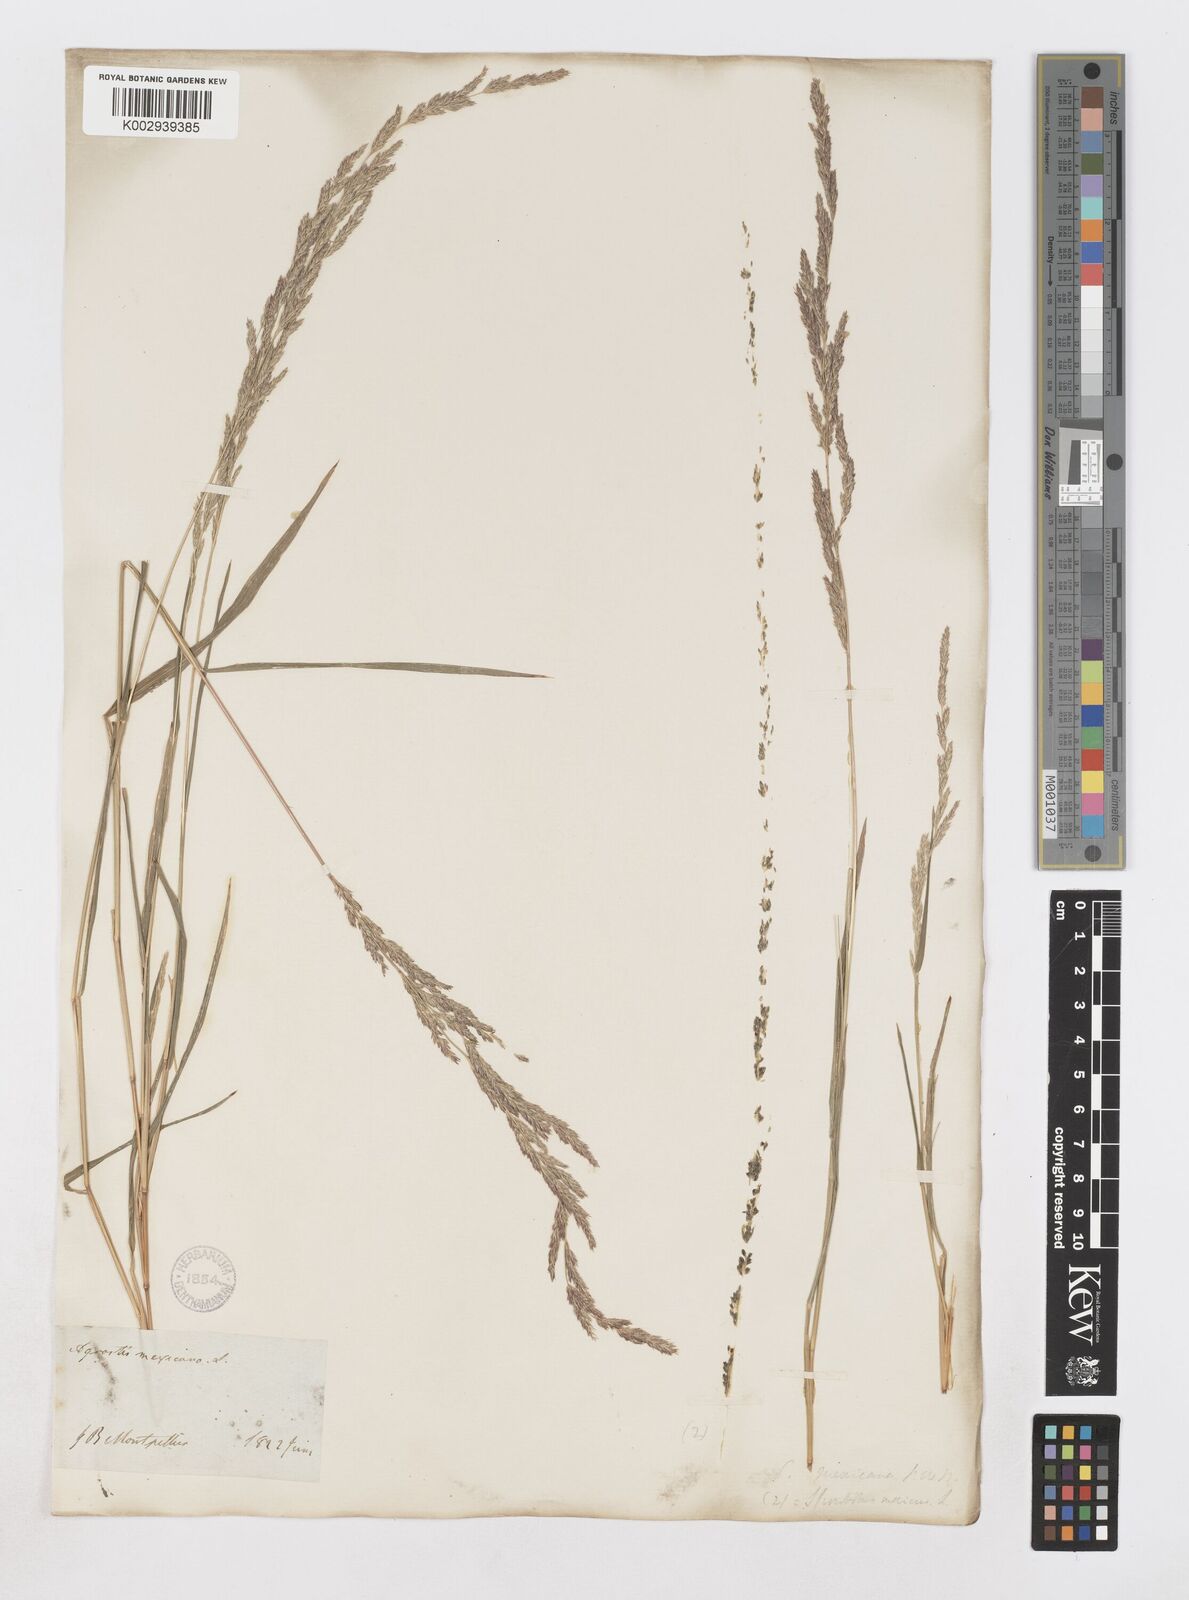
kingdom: Plantae
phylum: Tracheophyta
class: Liliopsida
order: Poales
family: Poaceae
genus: Muhlenbergia
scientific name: Muhlenbergia mexicana
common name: Mexican muhly
